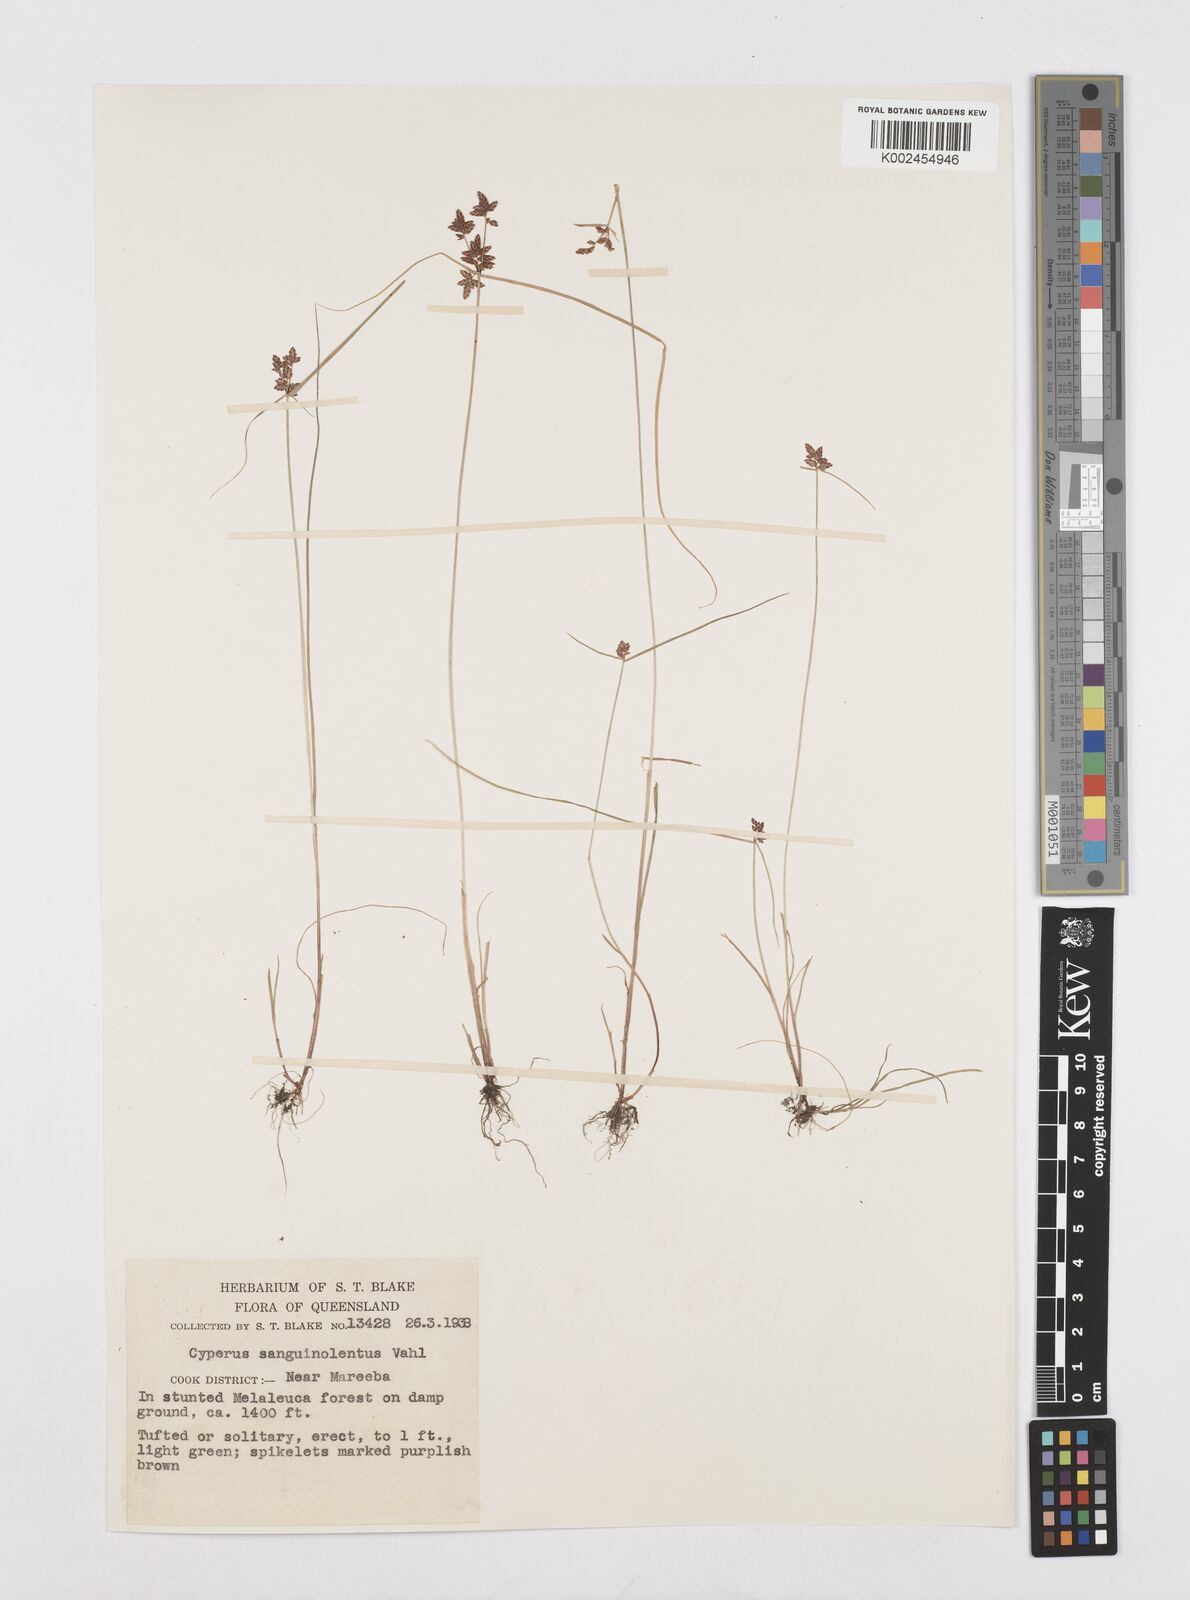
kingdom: Plantae
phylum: Tracheophyta
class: Liliopsida
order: Poales
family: Cyperaceae
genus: Cyperus
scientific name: Cyperus sanguinolentus
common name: Purpleglume flatsedge
